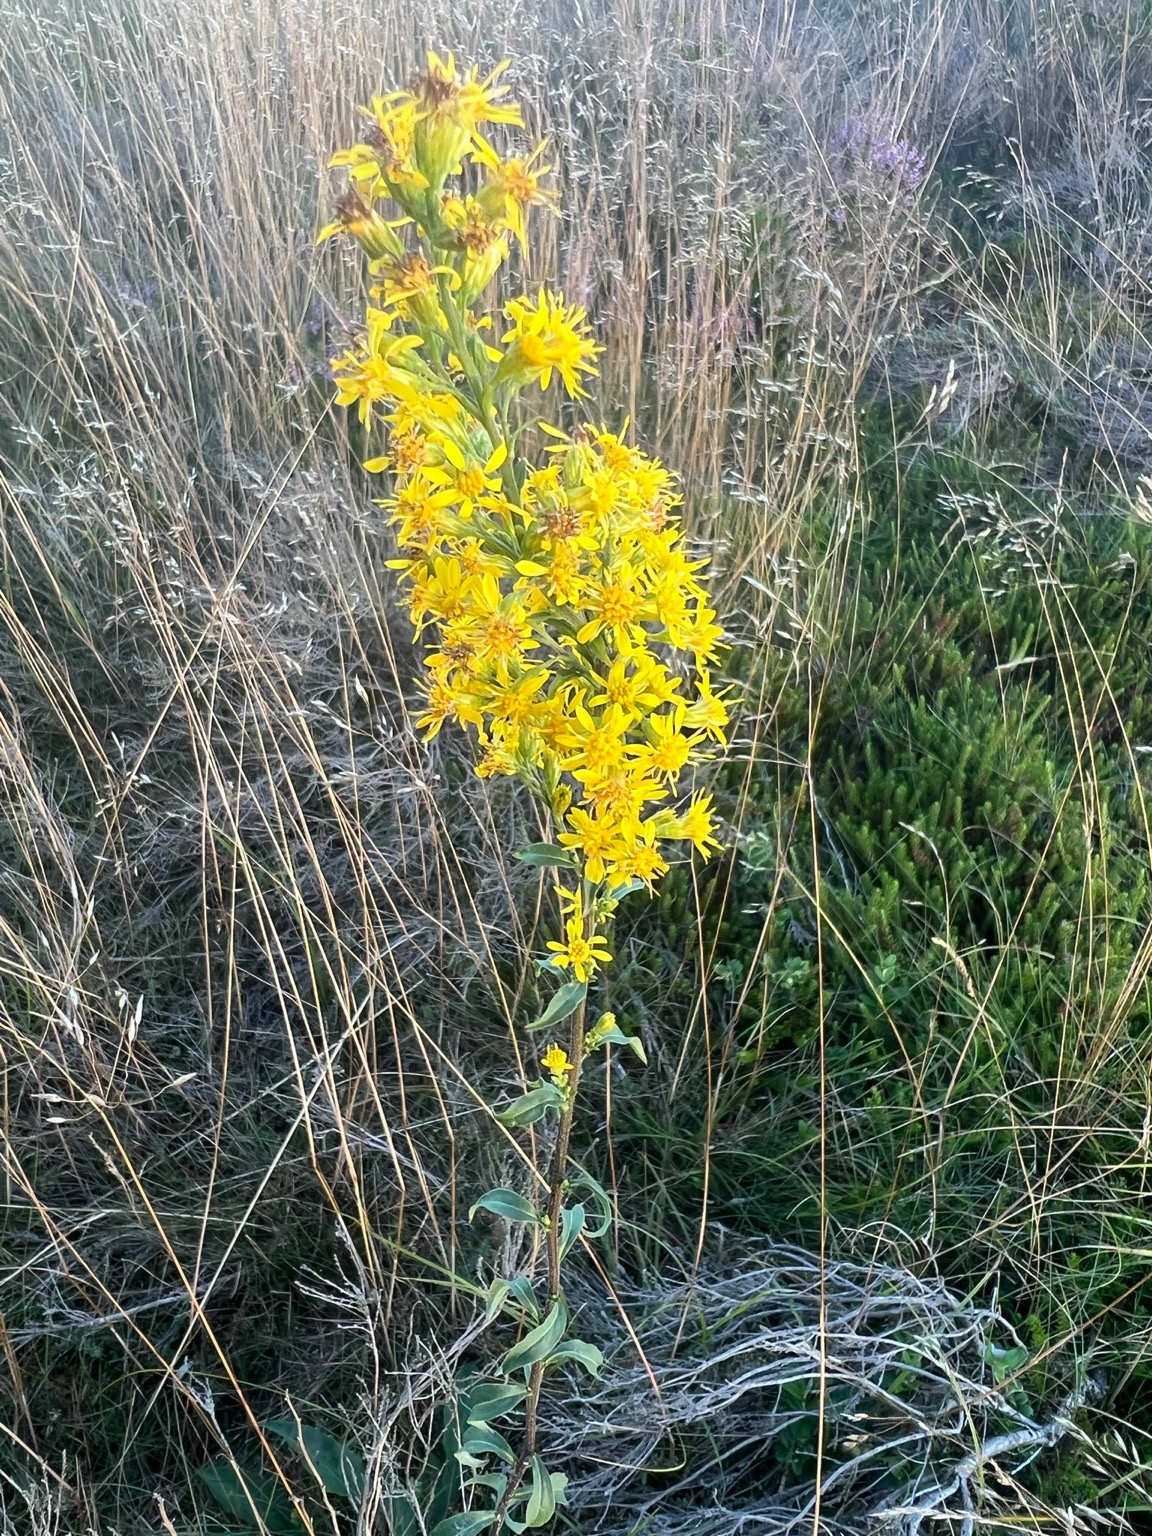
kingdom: Plantae
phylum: Tracheophyta
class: Magnoliopsida
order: Asterales
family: Asteraceae
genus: Solidago
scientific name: Solidago virgaurea
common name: Almindelig gyldenris
